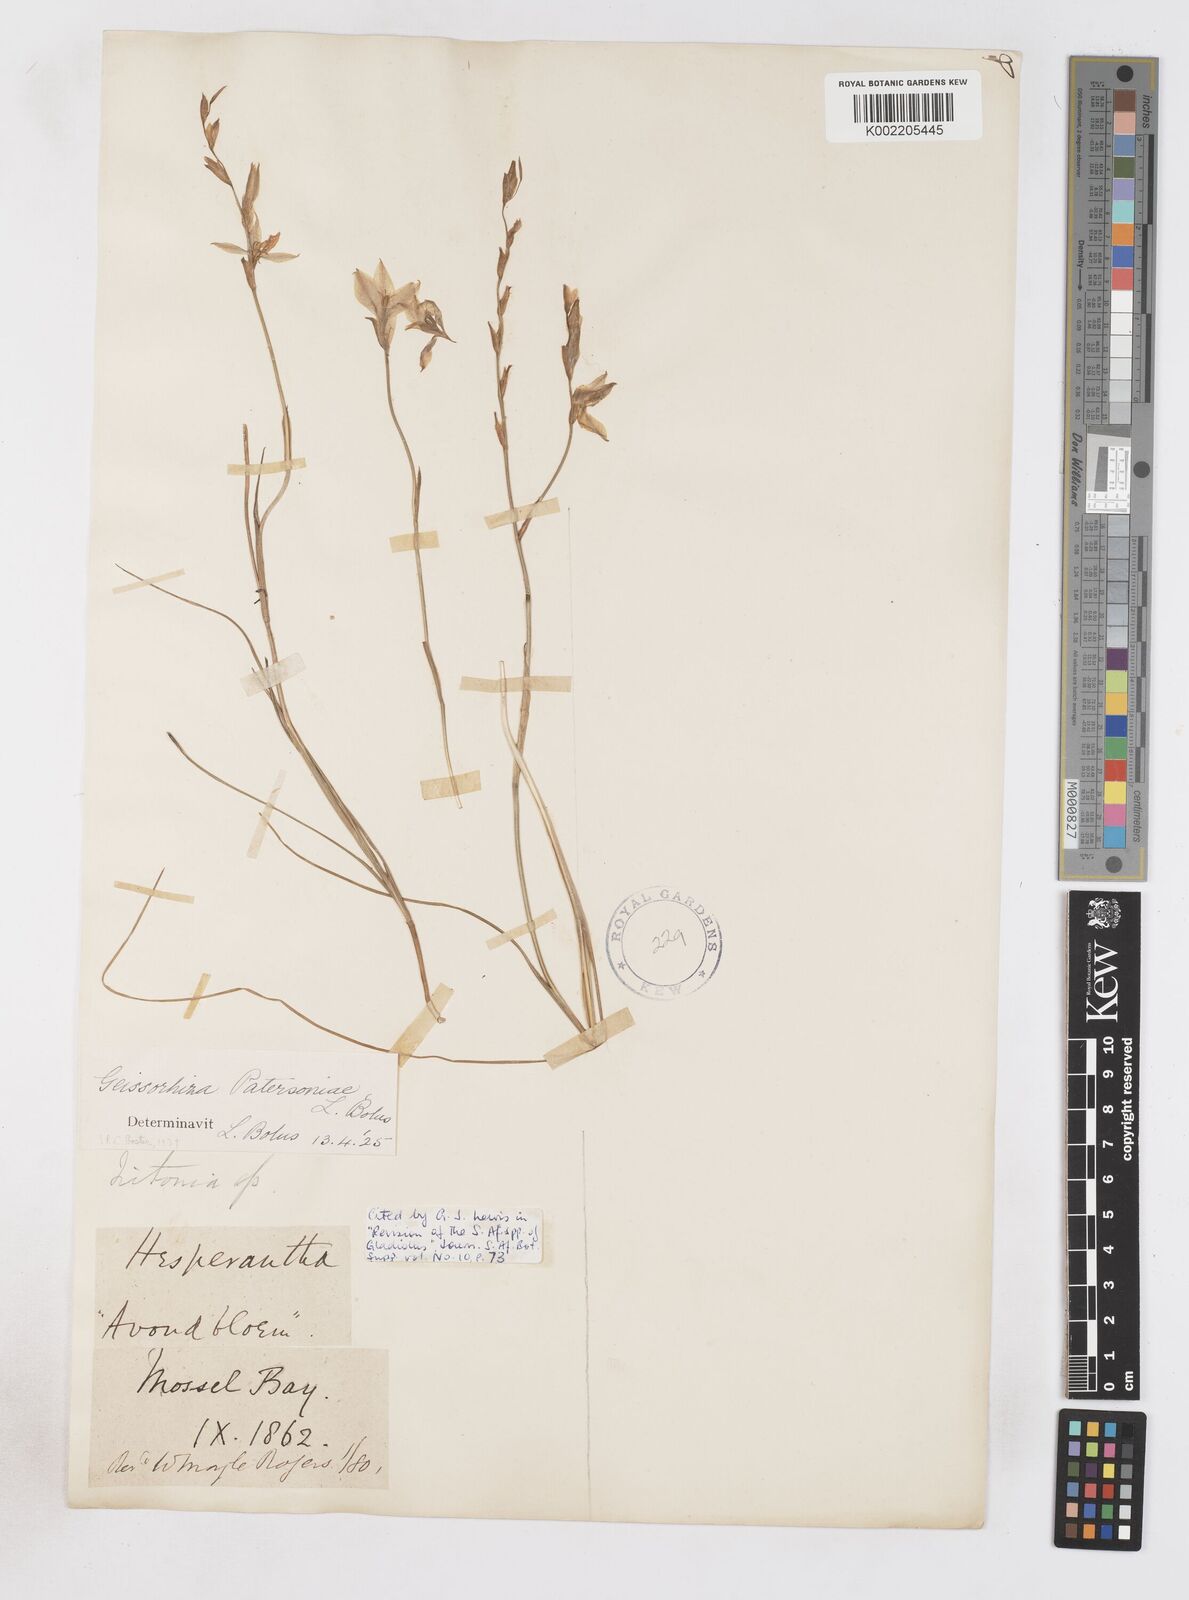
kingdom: Plantae
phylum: Tracheophyta
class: Liliopsida
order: Asparagales
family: Iridaceae
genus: Gladiolus
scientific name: Gladiolus stellatus
